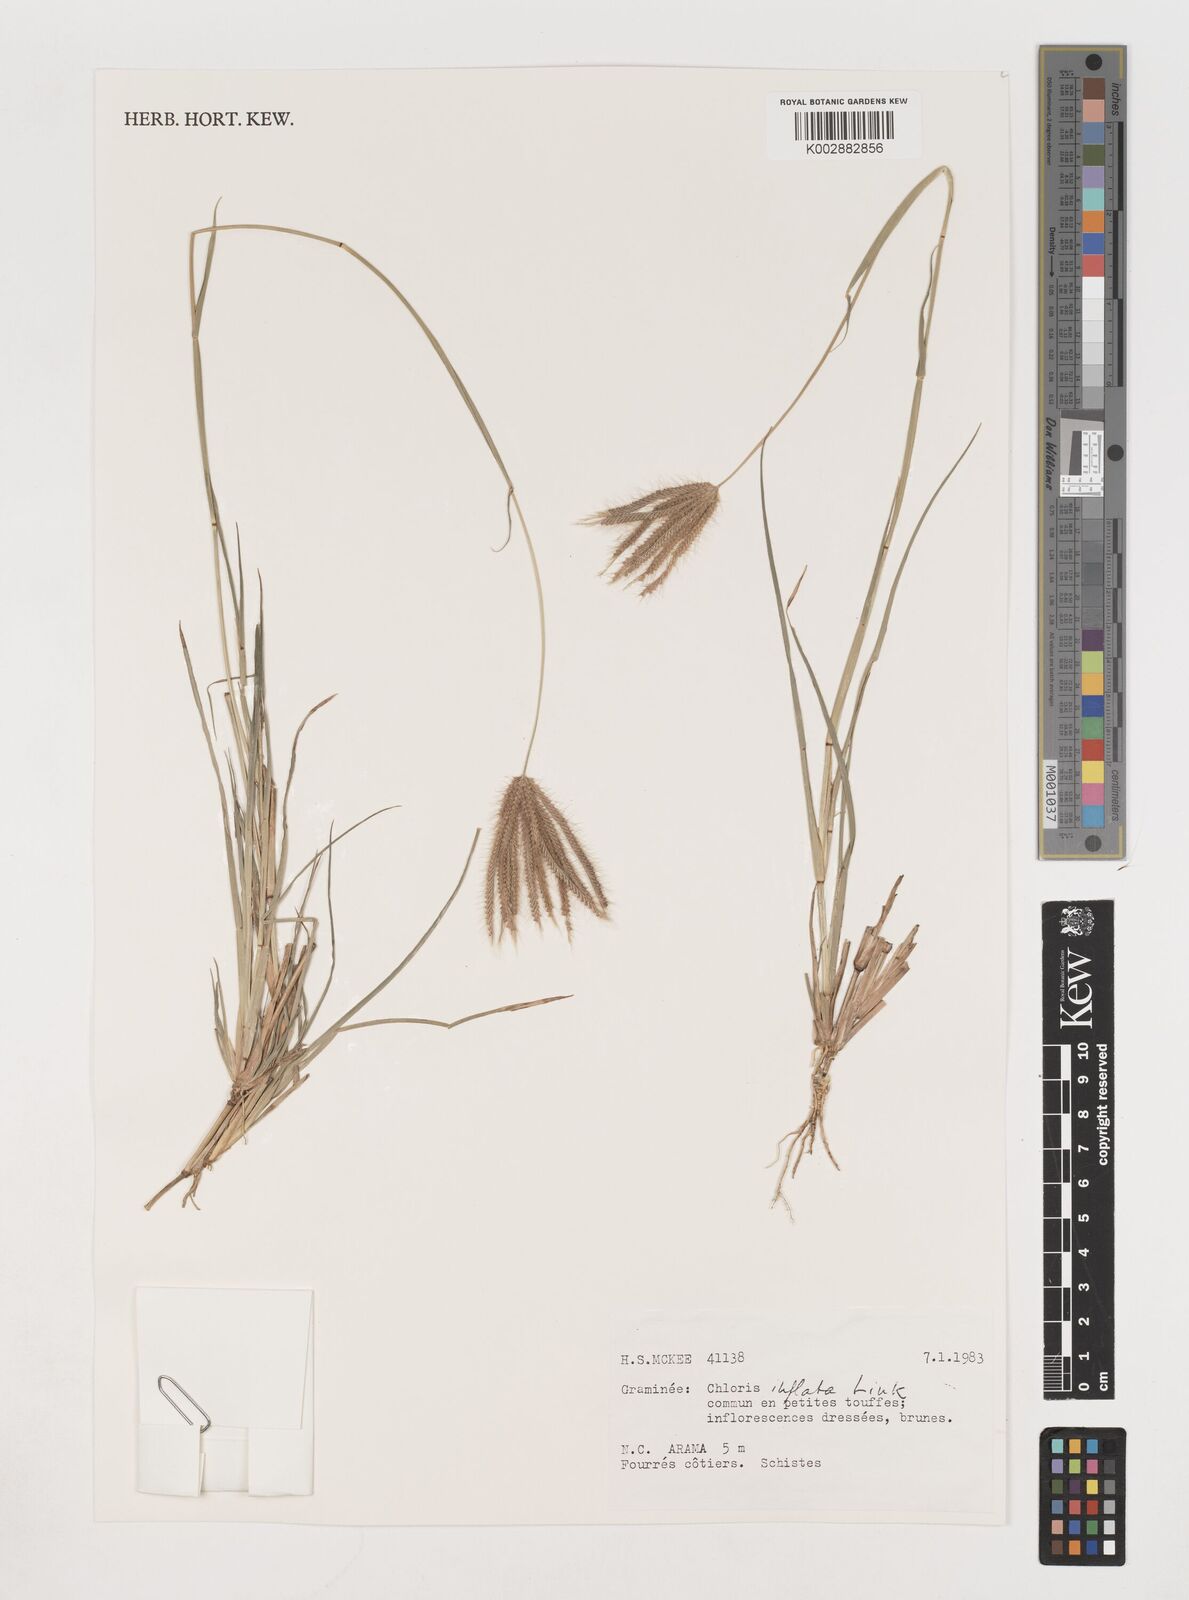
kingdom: Plantae
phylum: Tracheophyta
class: Liliopsida
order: Poales
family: Poaceae
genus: Chloris
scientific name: Chloris barbata
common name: Swollen fingergrass
